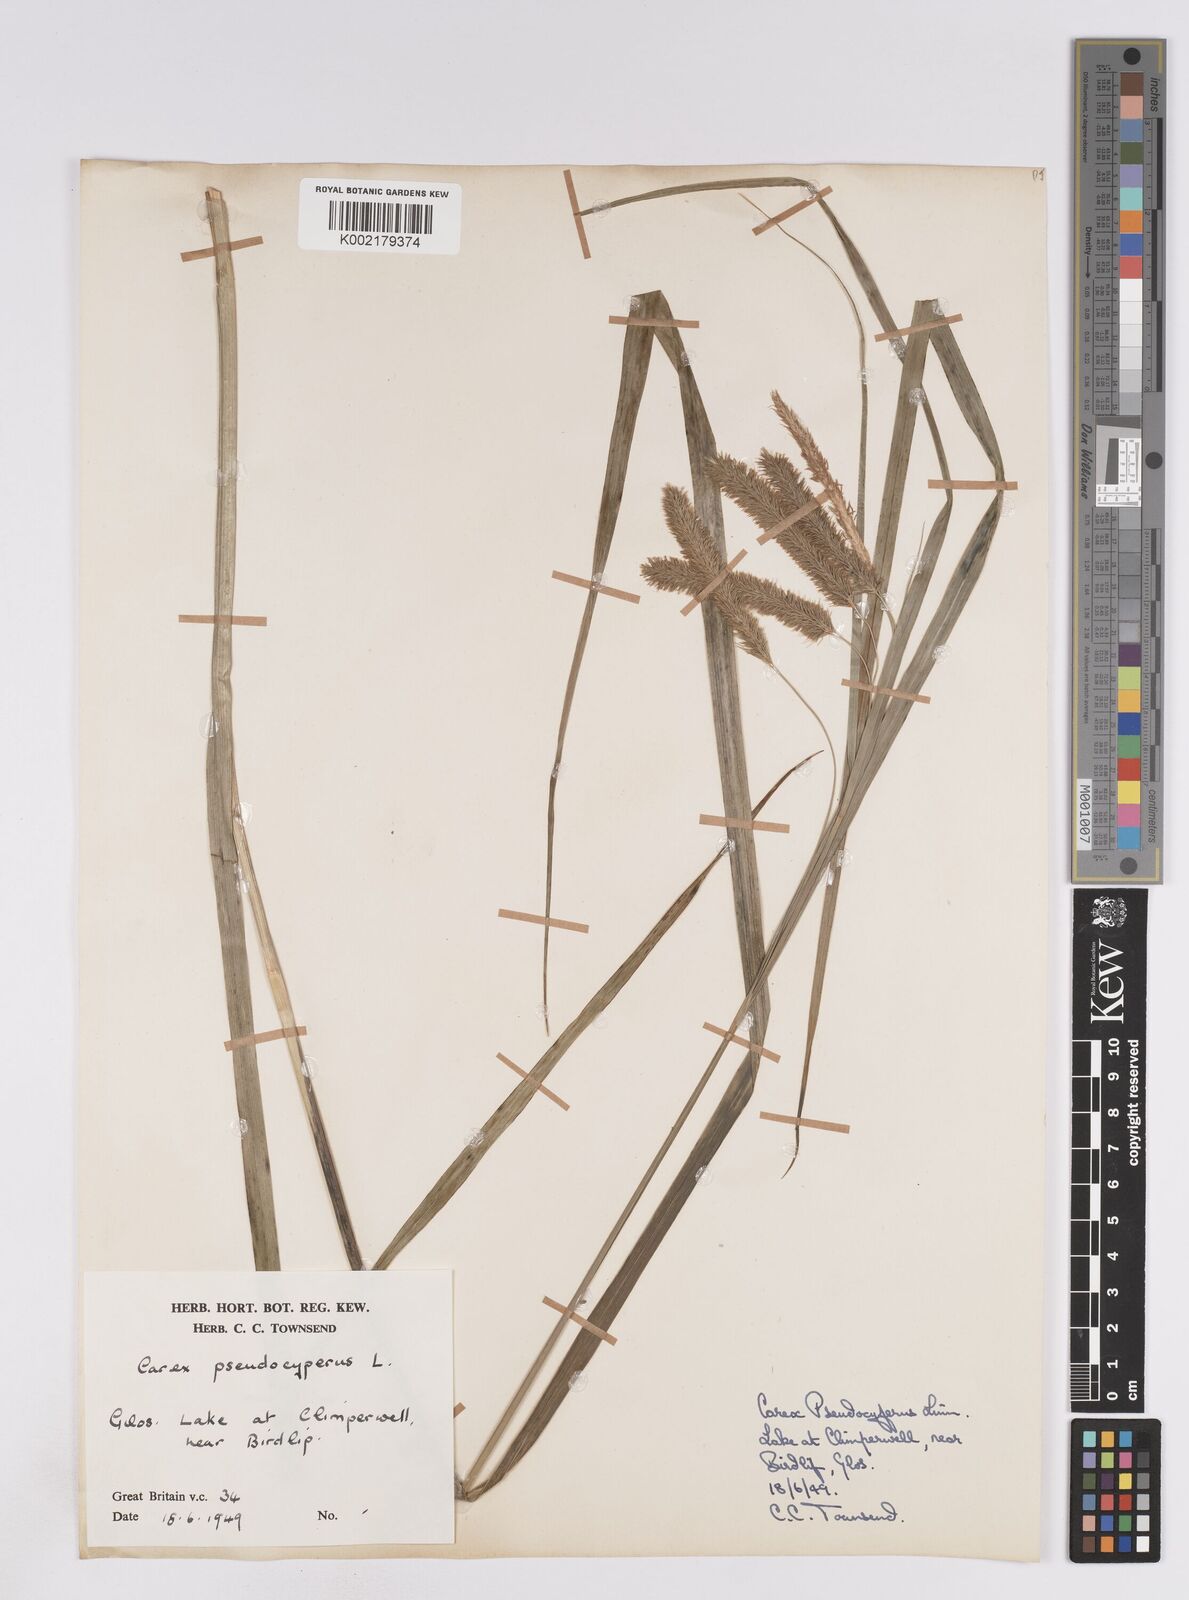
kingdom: Plantae
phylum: Tracheophyta
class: Liliopsida
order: Poales
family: Cyperaceae
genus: Carex
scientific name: Carex pseudocyperus
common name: Cyperus sedge
